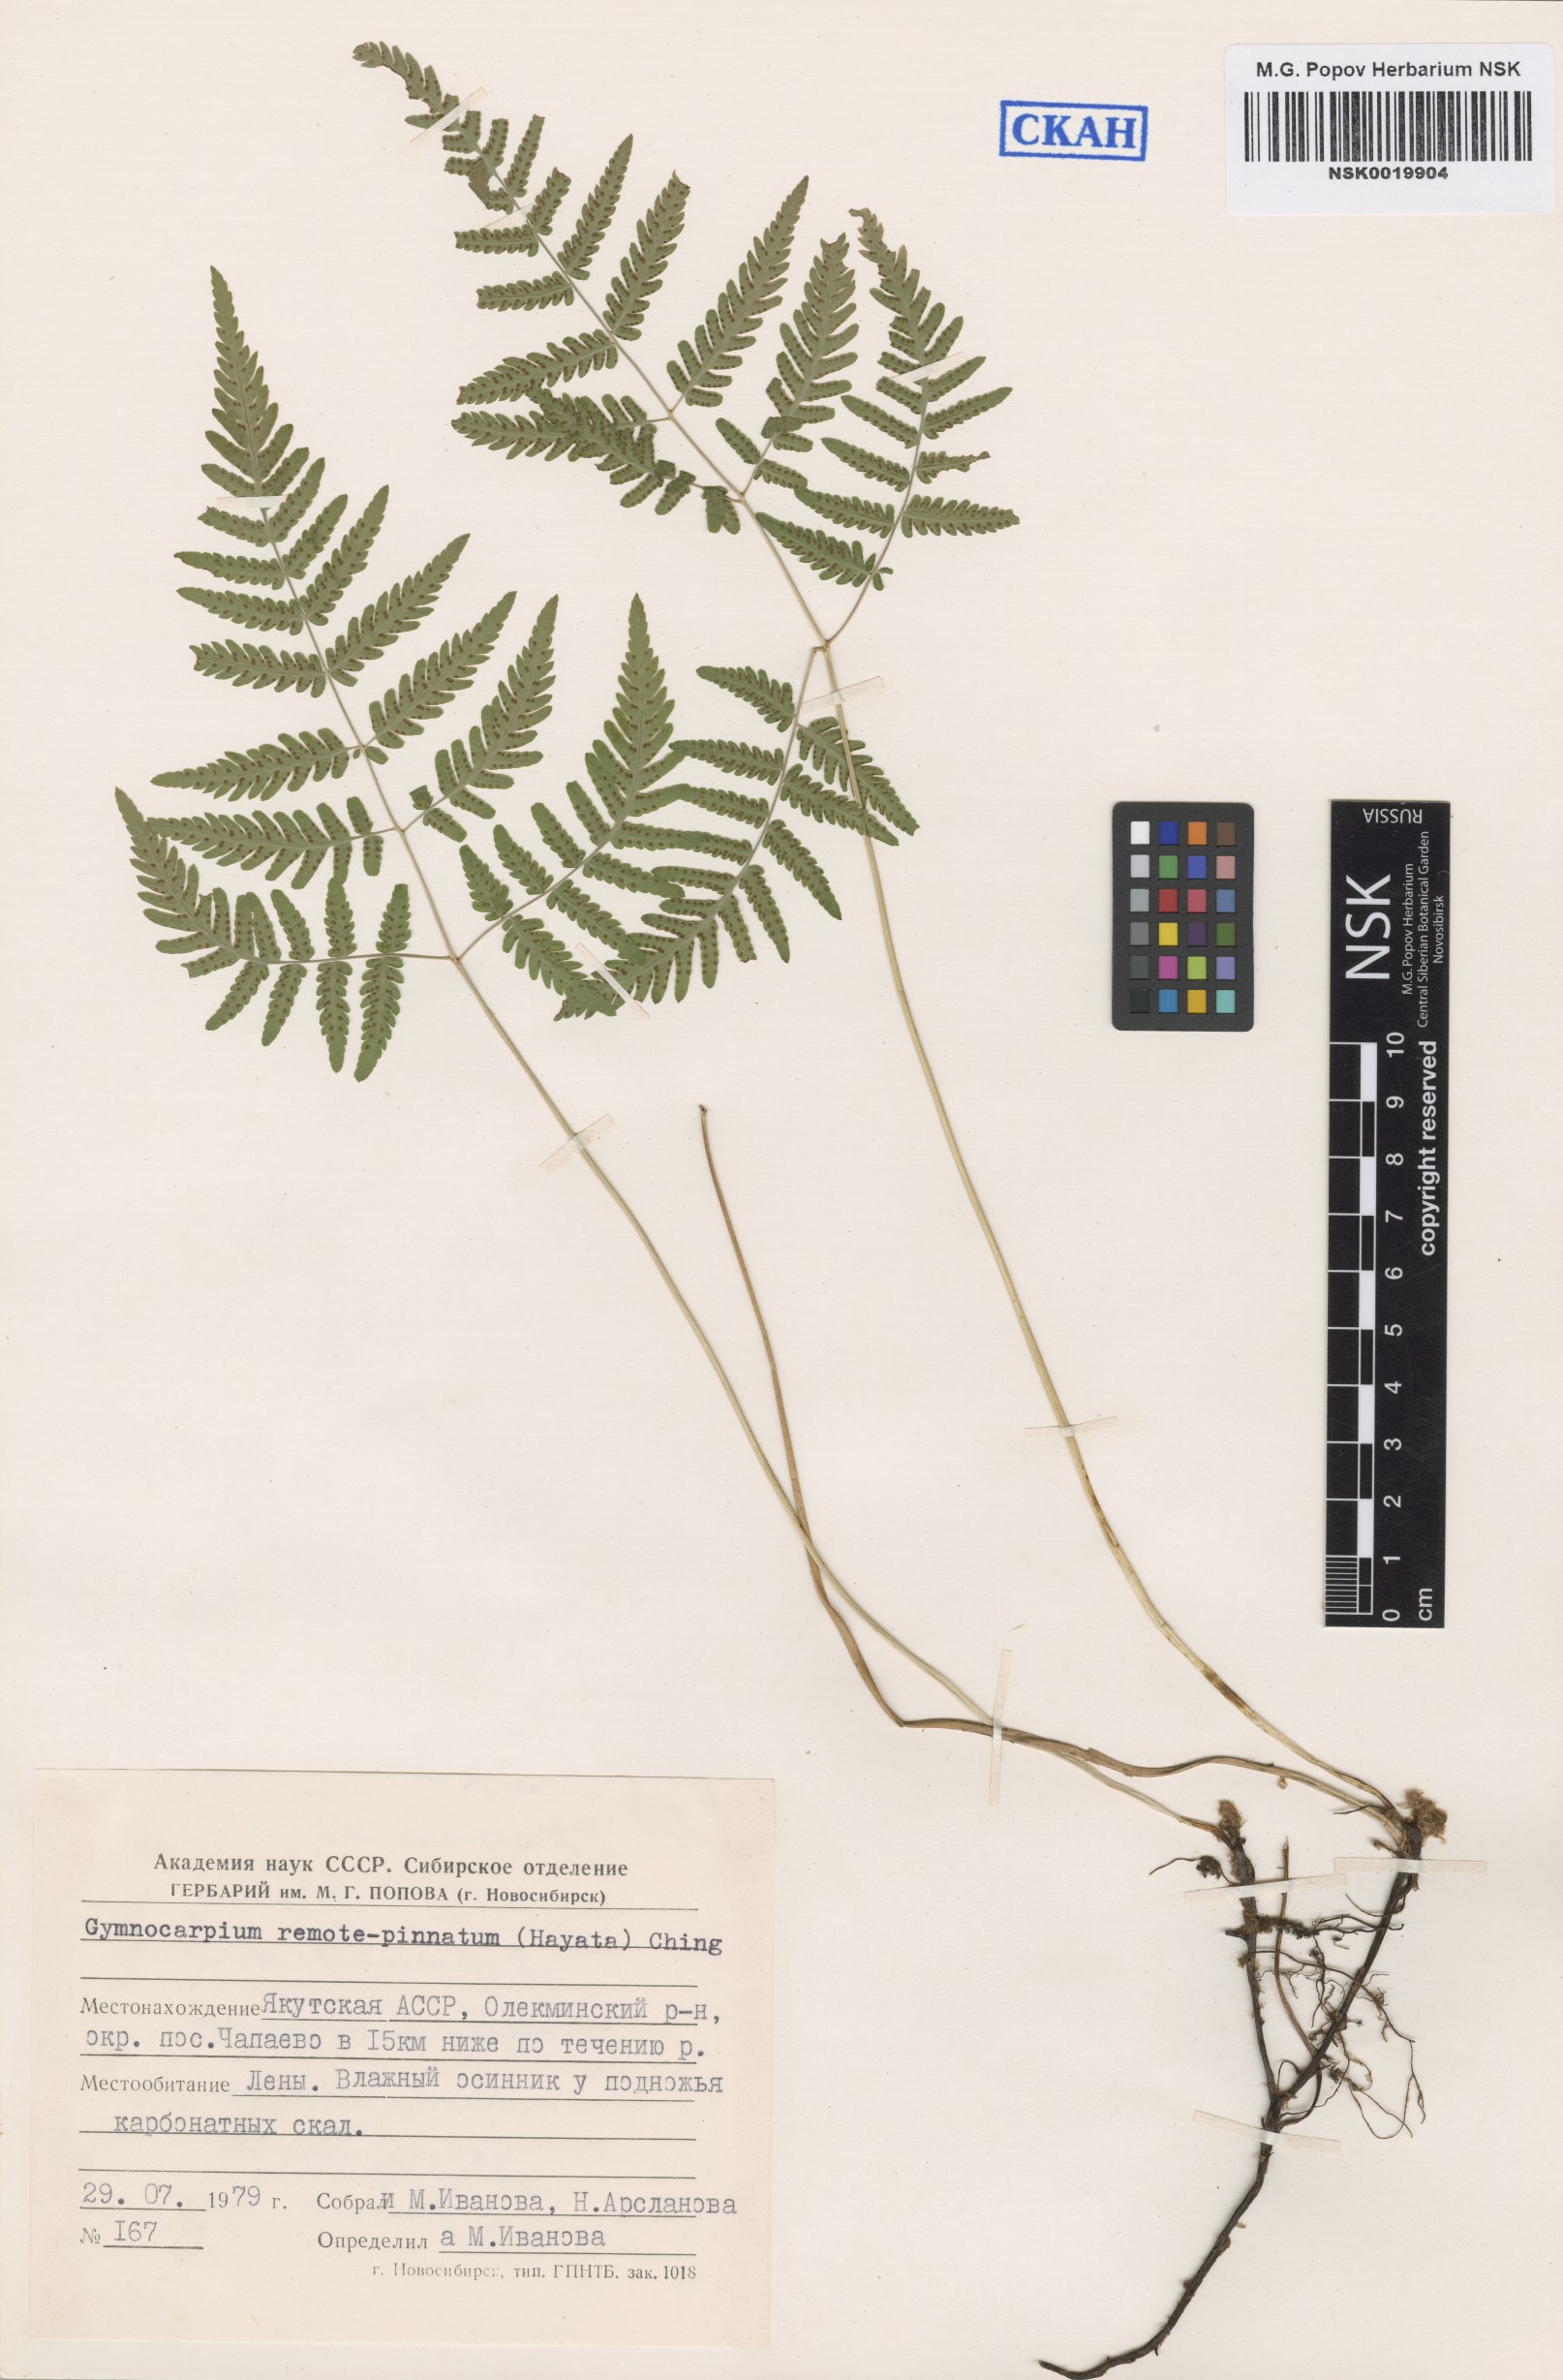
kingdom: Plantae
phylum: Tracheophyta
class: Polypodiopsida
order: Polypodiales
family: Cystopteridaceae
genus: Gymnocarpium
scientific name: Gymnocarpium remotepinnatum
